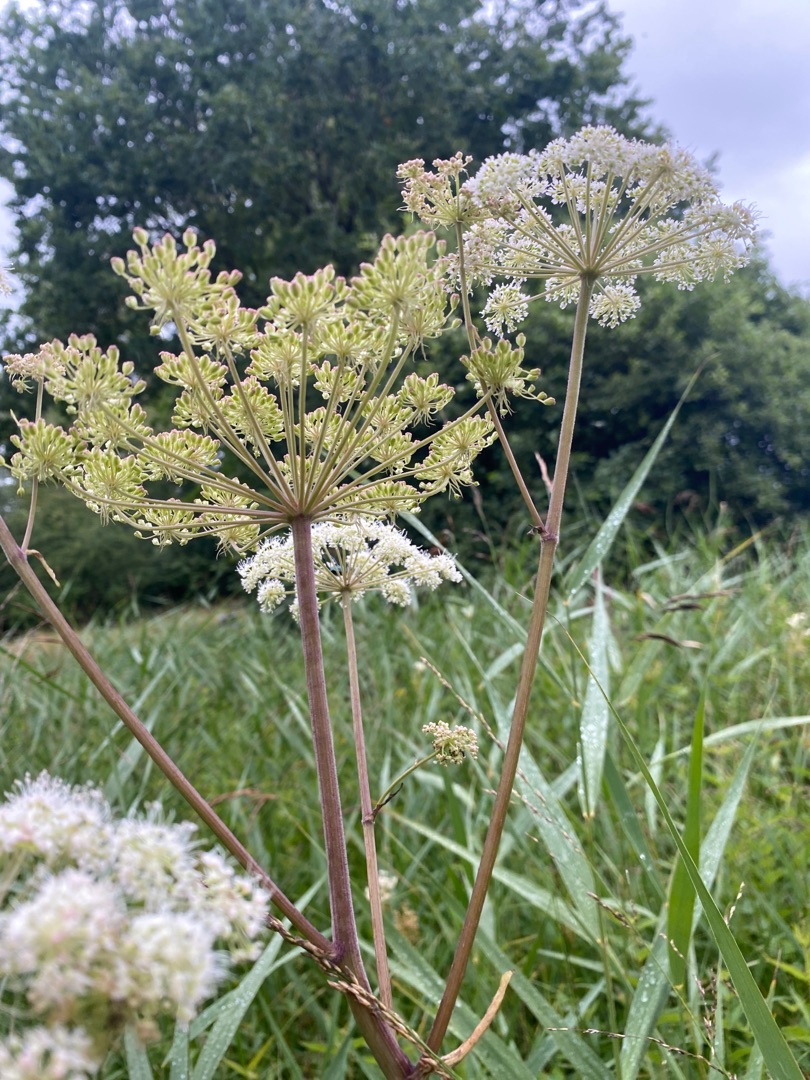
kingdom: Plantae
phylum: Tracheophyta
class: Magnoliopsida
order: Apiales
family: Apiaceae
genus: Angelica
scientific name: Angelica sylvestris
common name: Angelik
